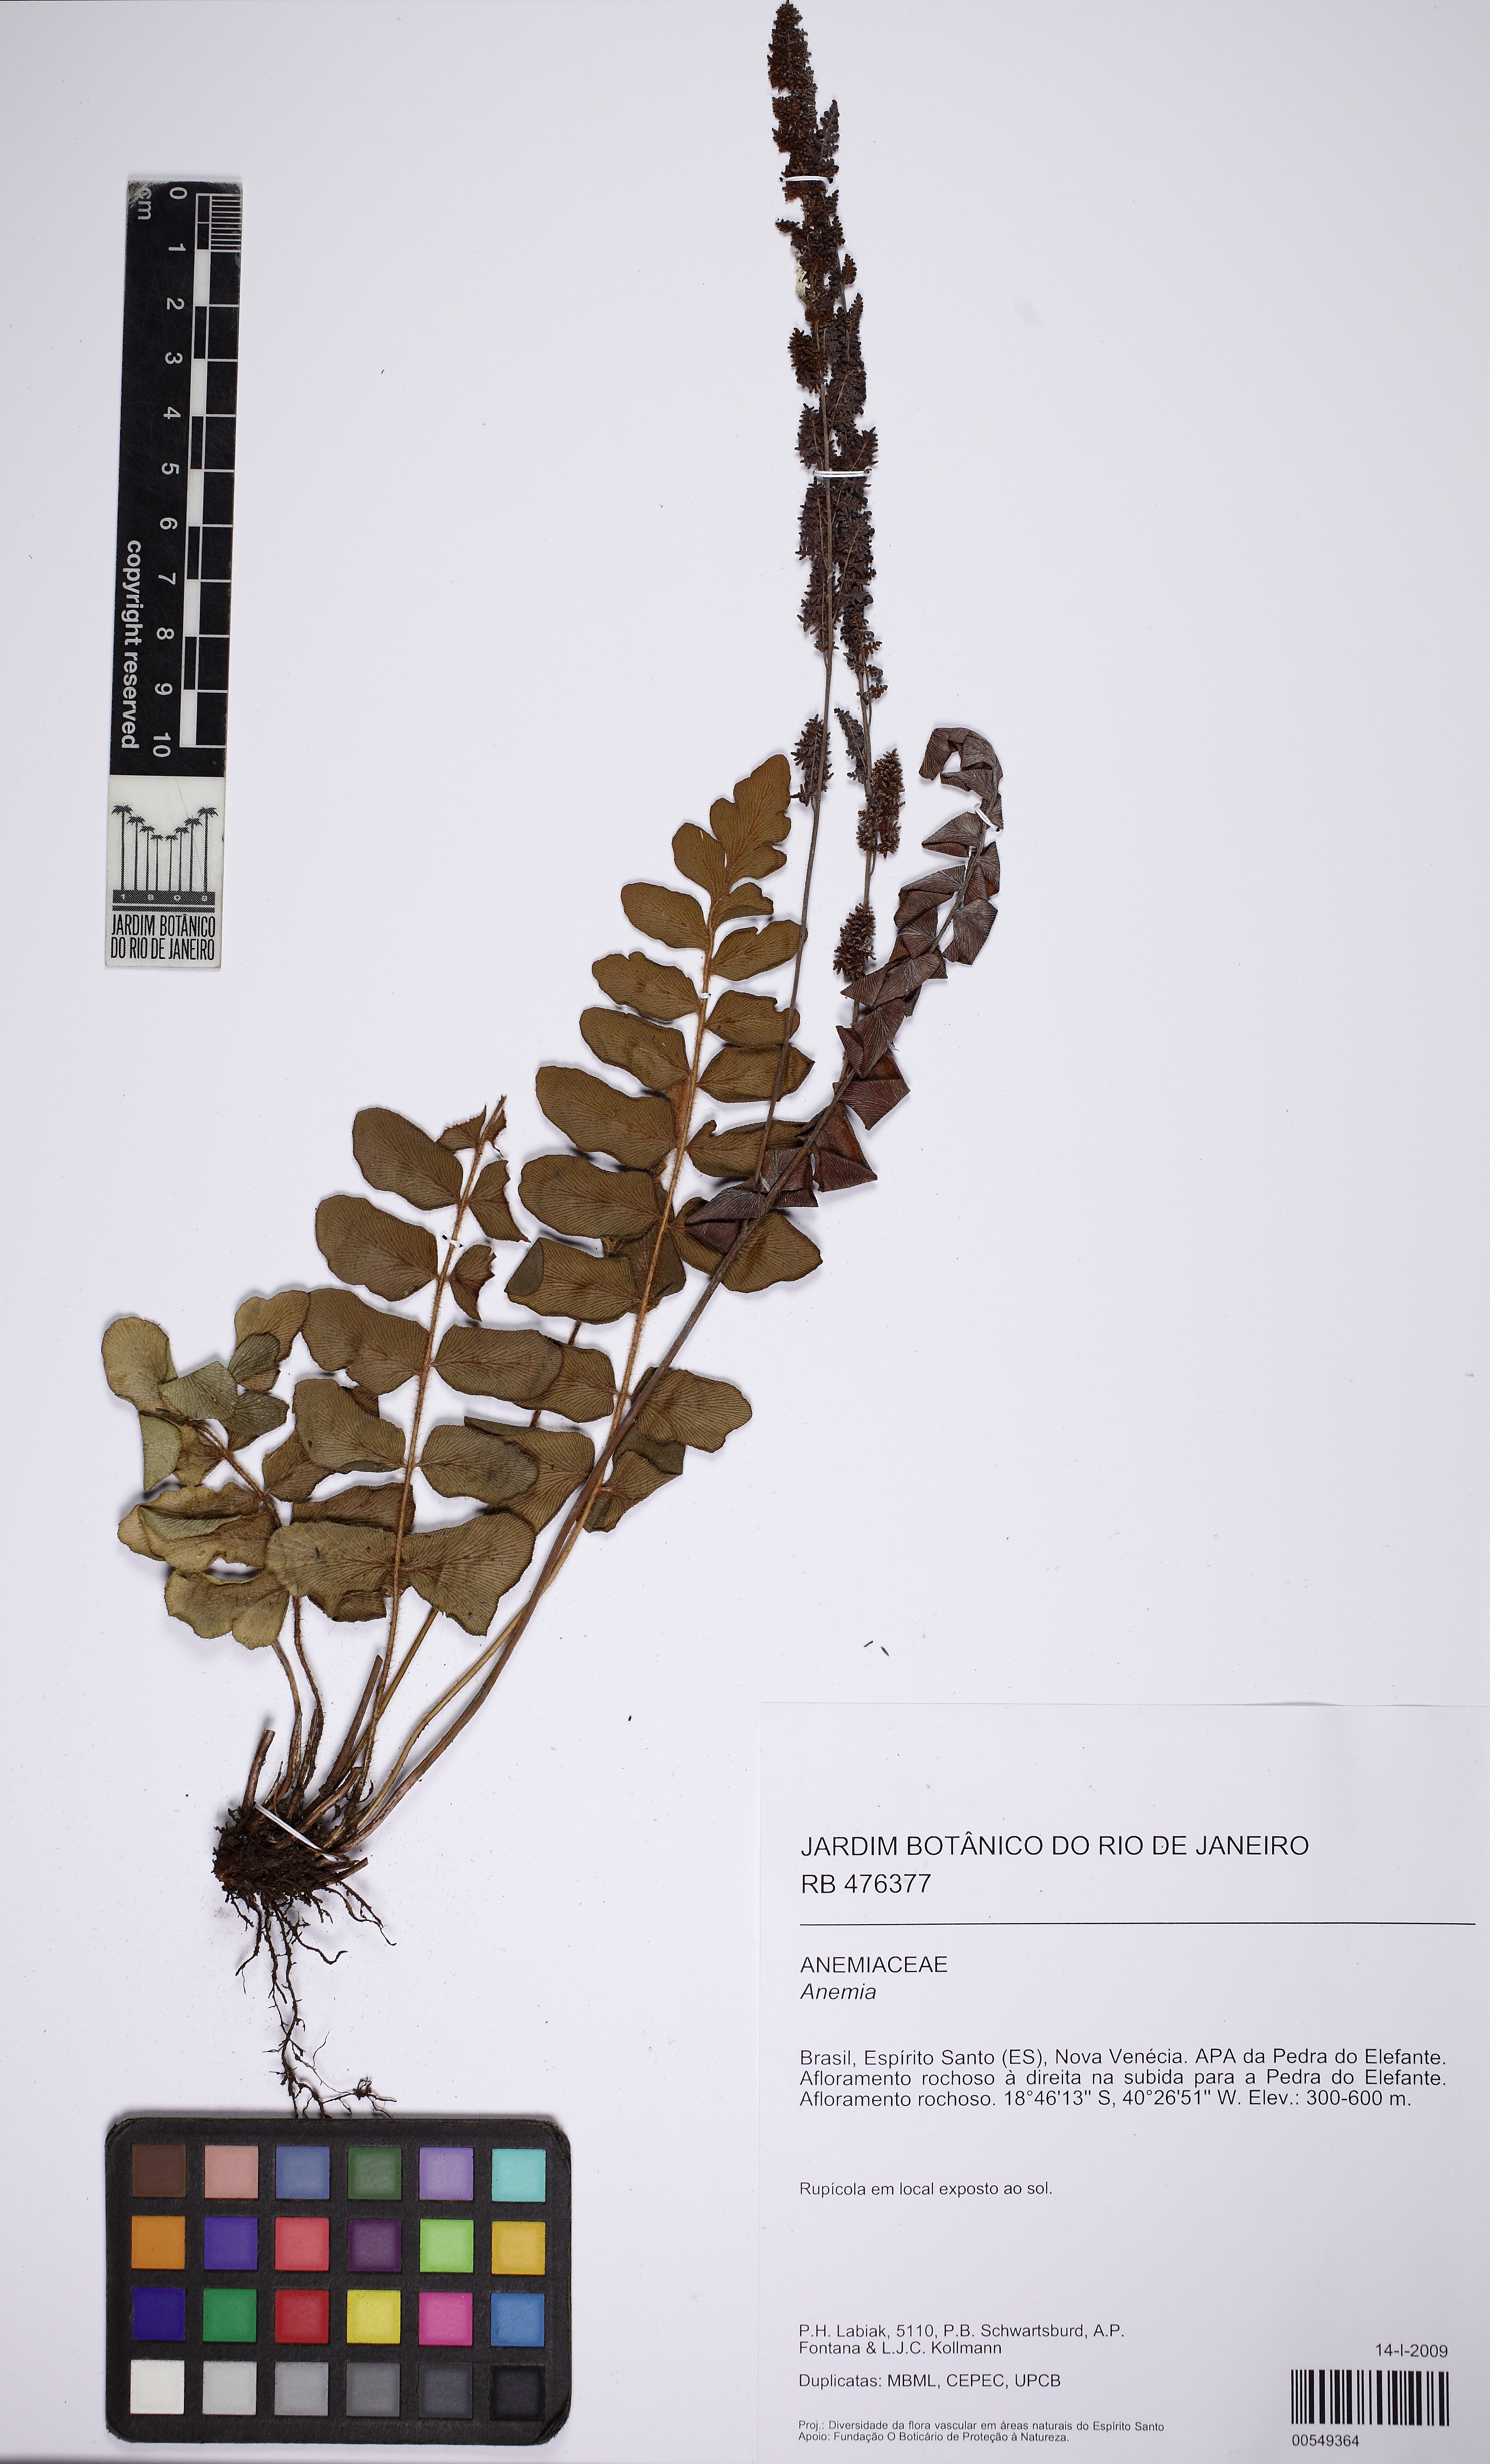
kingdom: Plantae
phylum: Tracheophyta
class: Polypodiopsida
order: Schizaeales
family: Anemiaceae
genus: Anemia
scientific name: Anemia organensis
